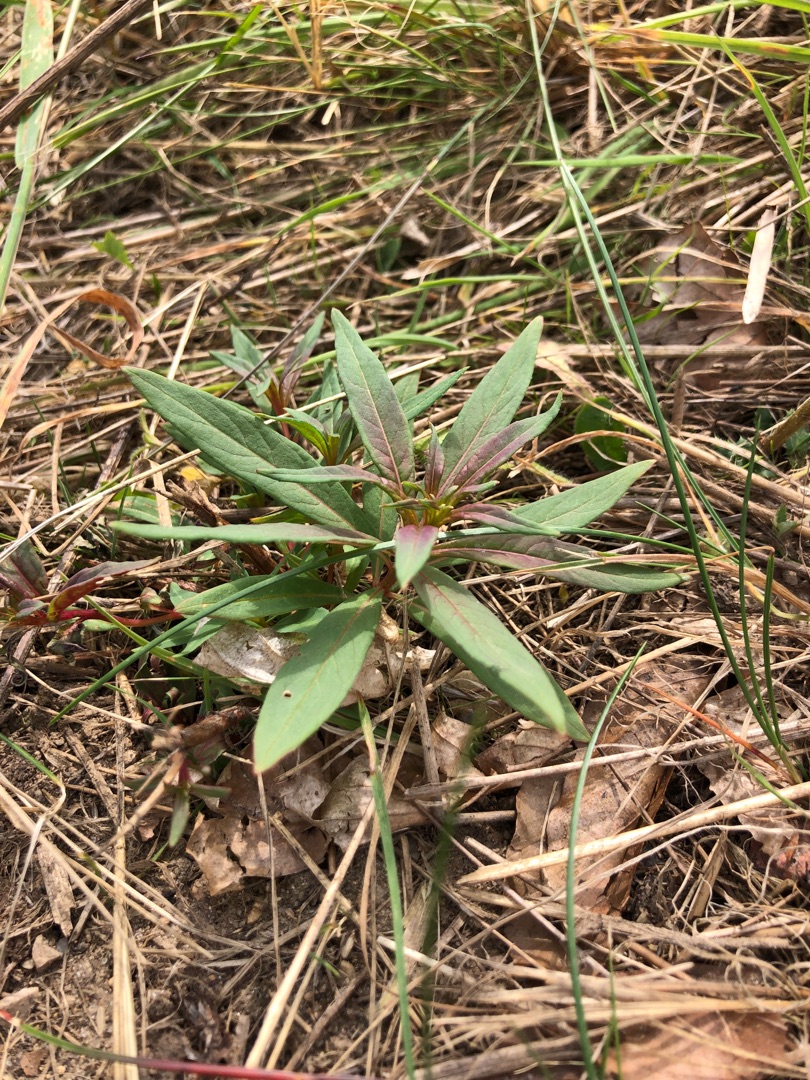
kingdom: Plantae
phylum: Tracheophyta
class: Magnoliopsida
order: Myrtales
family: Onagraceae
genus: Chamaenerion
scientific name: Chamaenerion angustifolium
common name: Gederams
